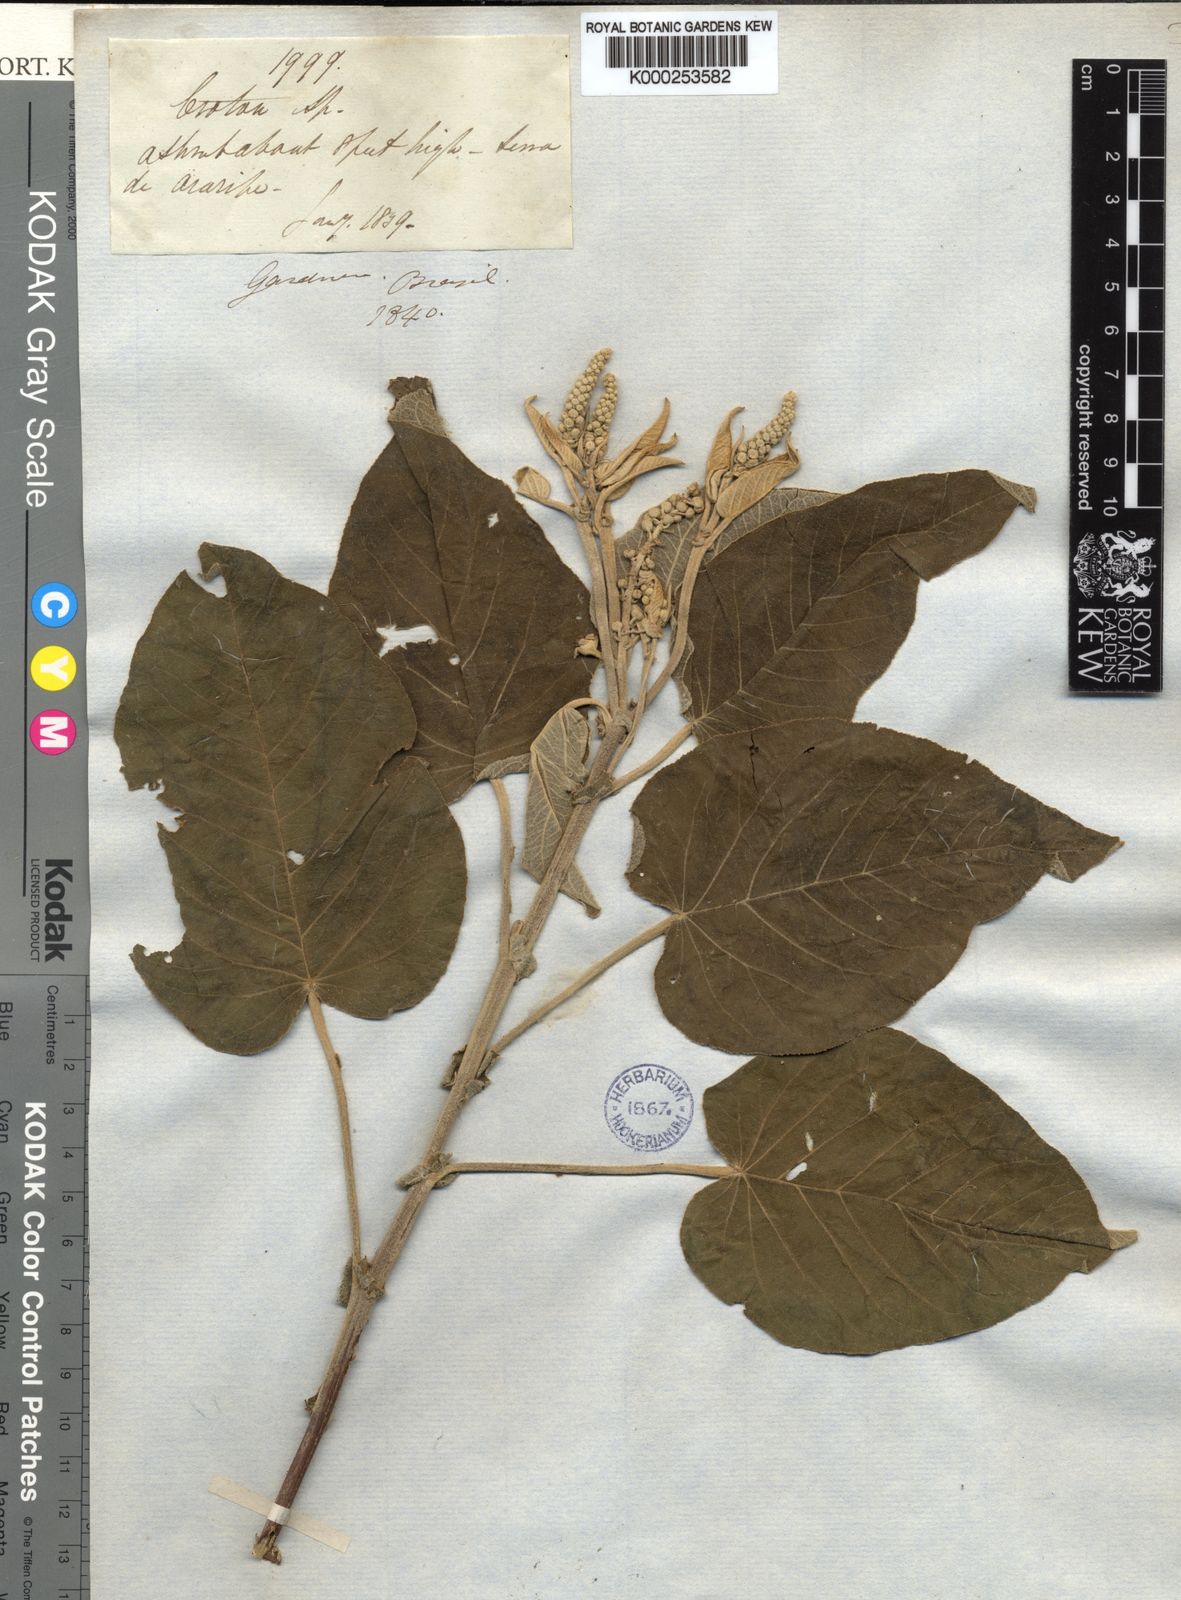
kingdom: Plantae
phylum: Tracheophyta
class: Magnoliopsida
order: Malpighiales
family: Euphorbiaceae
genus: Croton
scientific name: Croton jacobinensis
